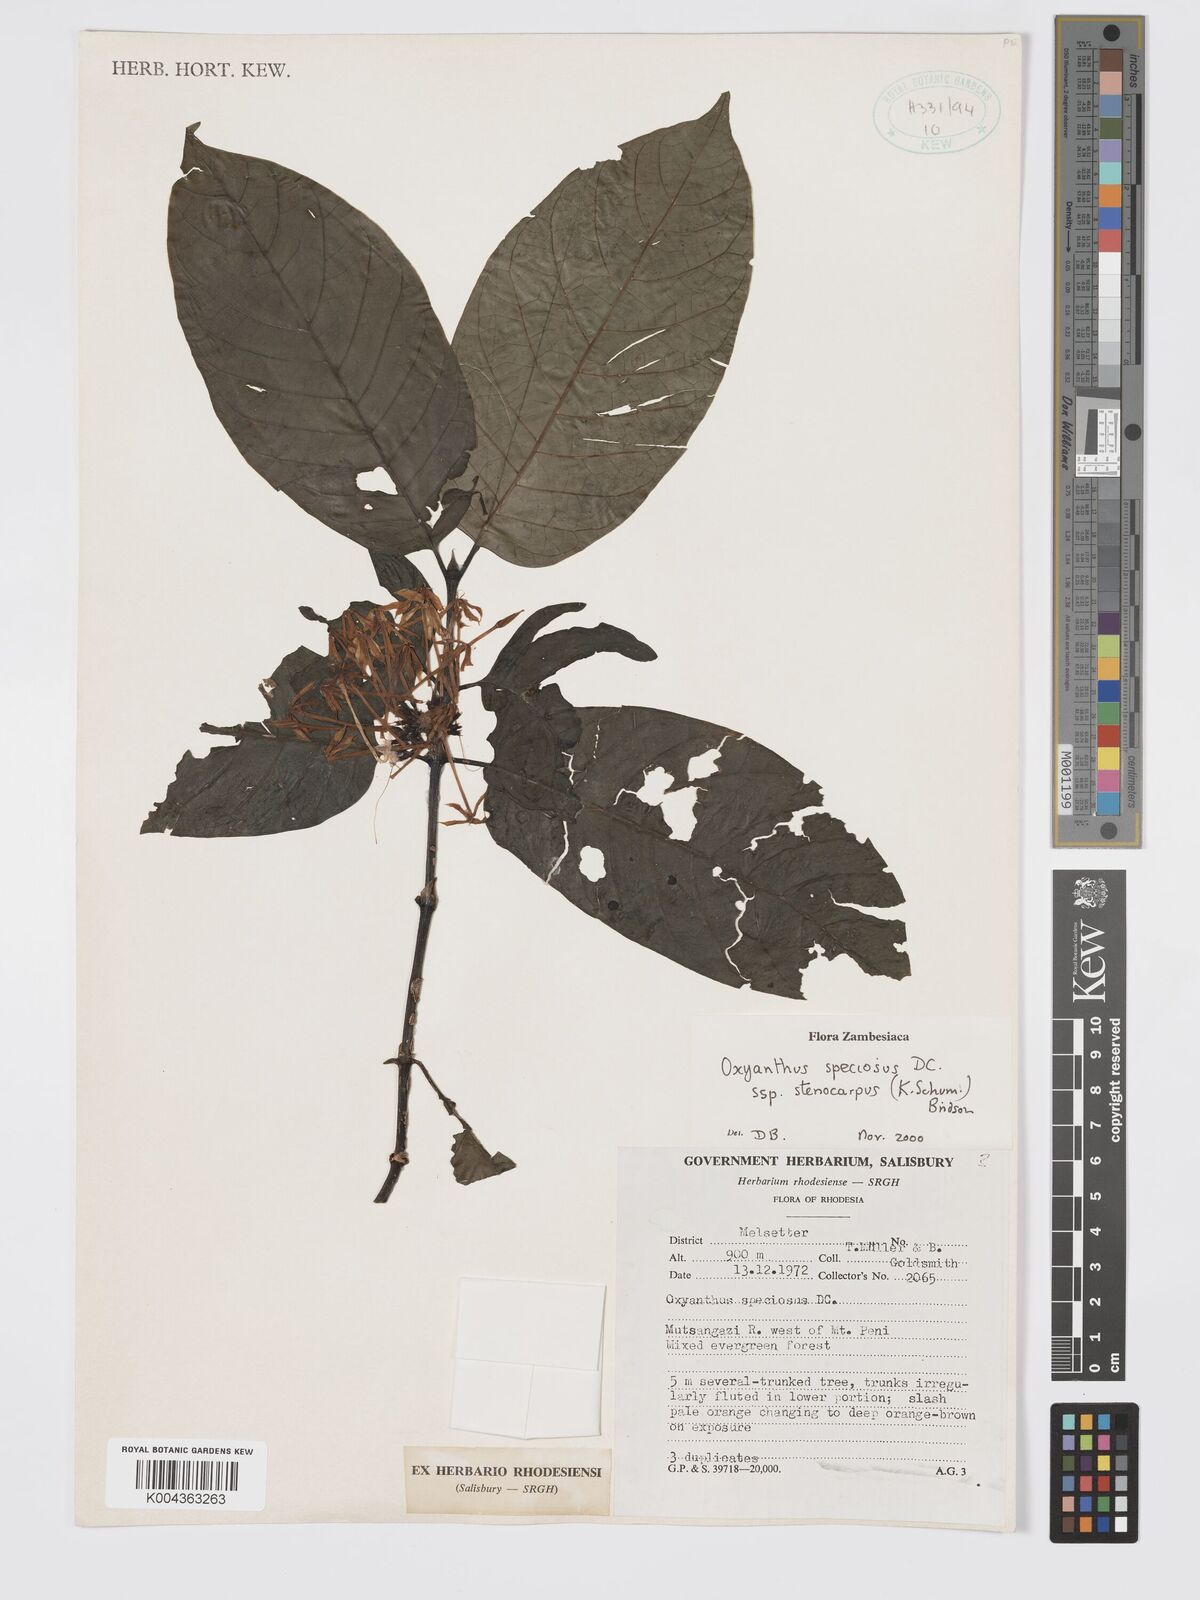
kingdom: Plantae
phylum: Tracheophyta
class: Magnoliopsida
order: Gentianales
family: Rubiaceae
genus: Oxyanthus
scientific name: Oxyanthus speciosus
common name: Whipstick loquat
